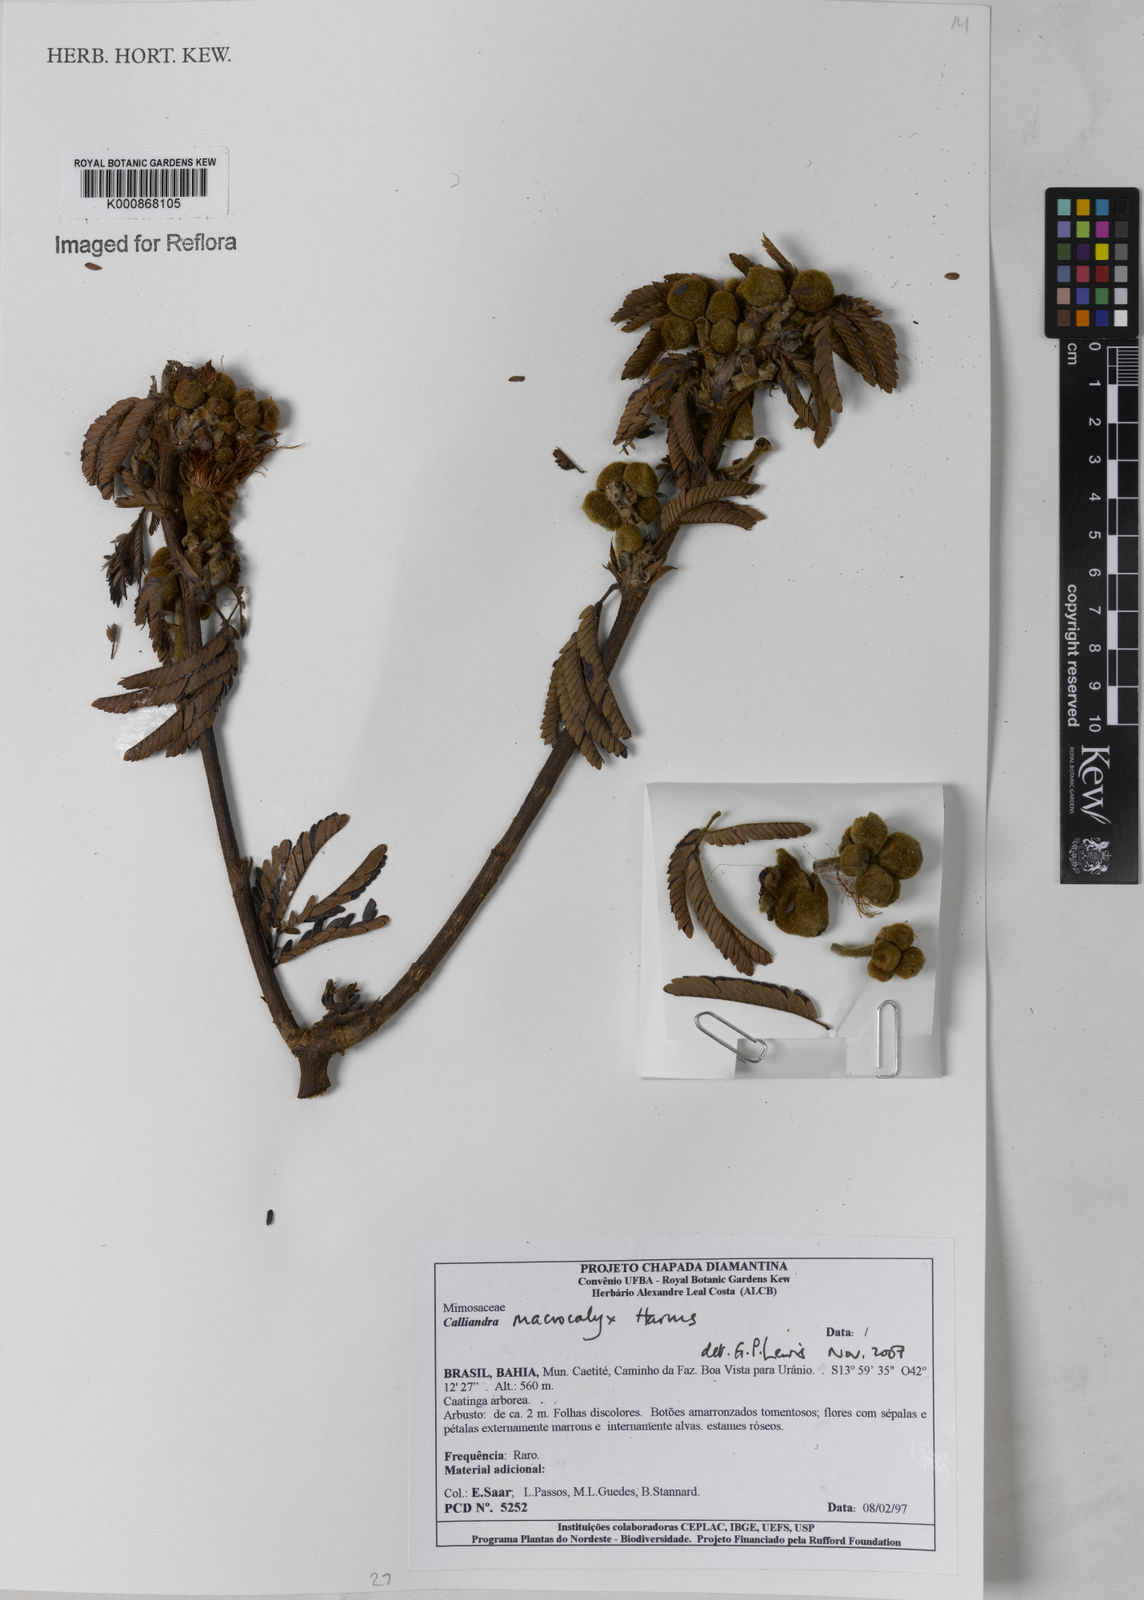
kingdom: Plantae
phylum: Tracheophyta
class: Magnoliopsida
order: Fabales
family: Fabaceae
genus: Calliandra
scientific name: Calliandra macrocalyx
